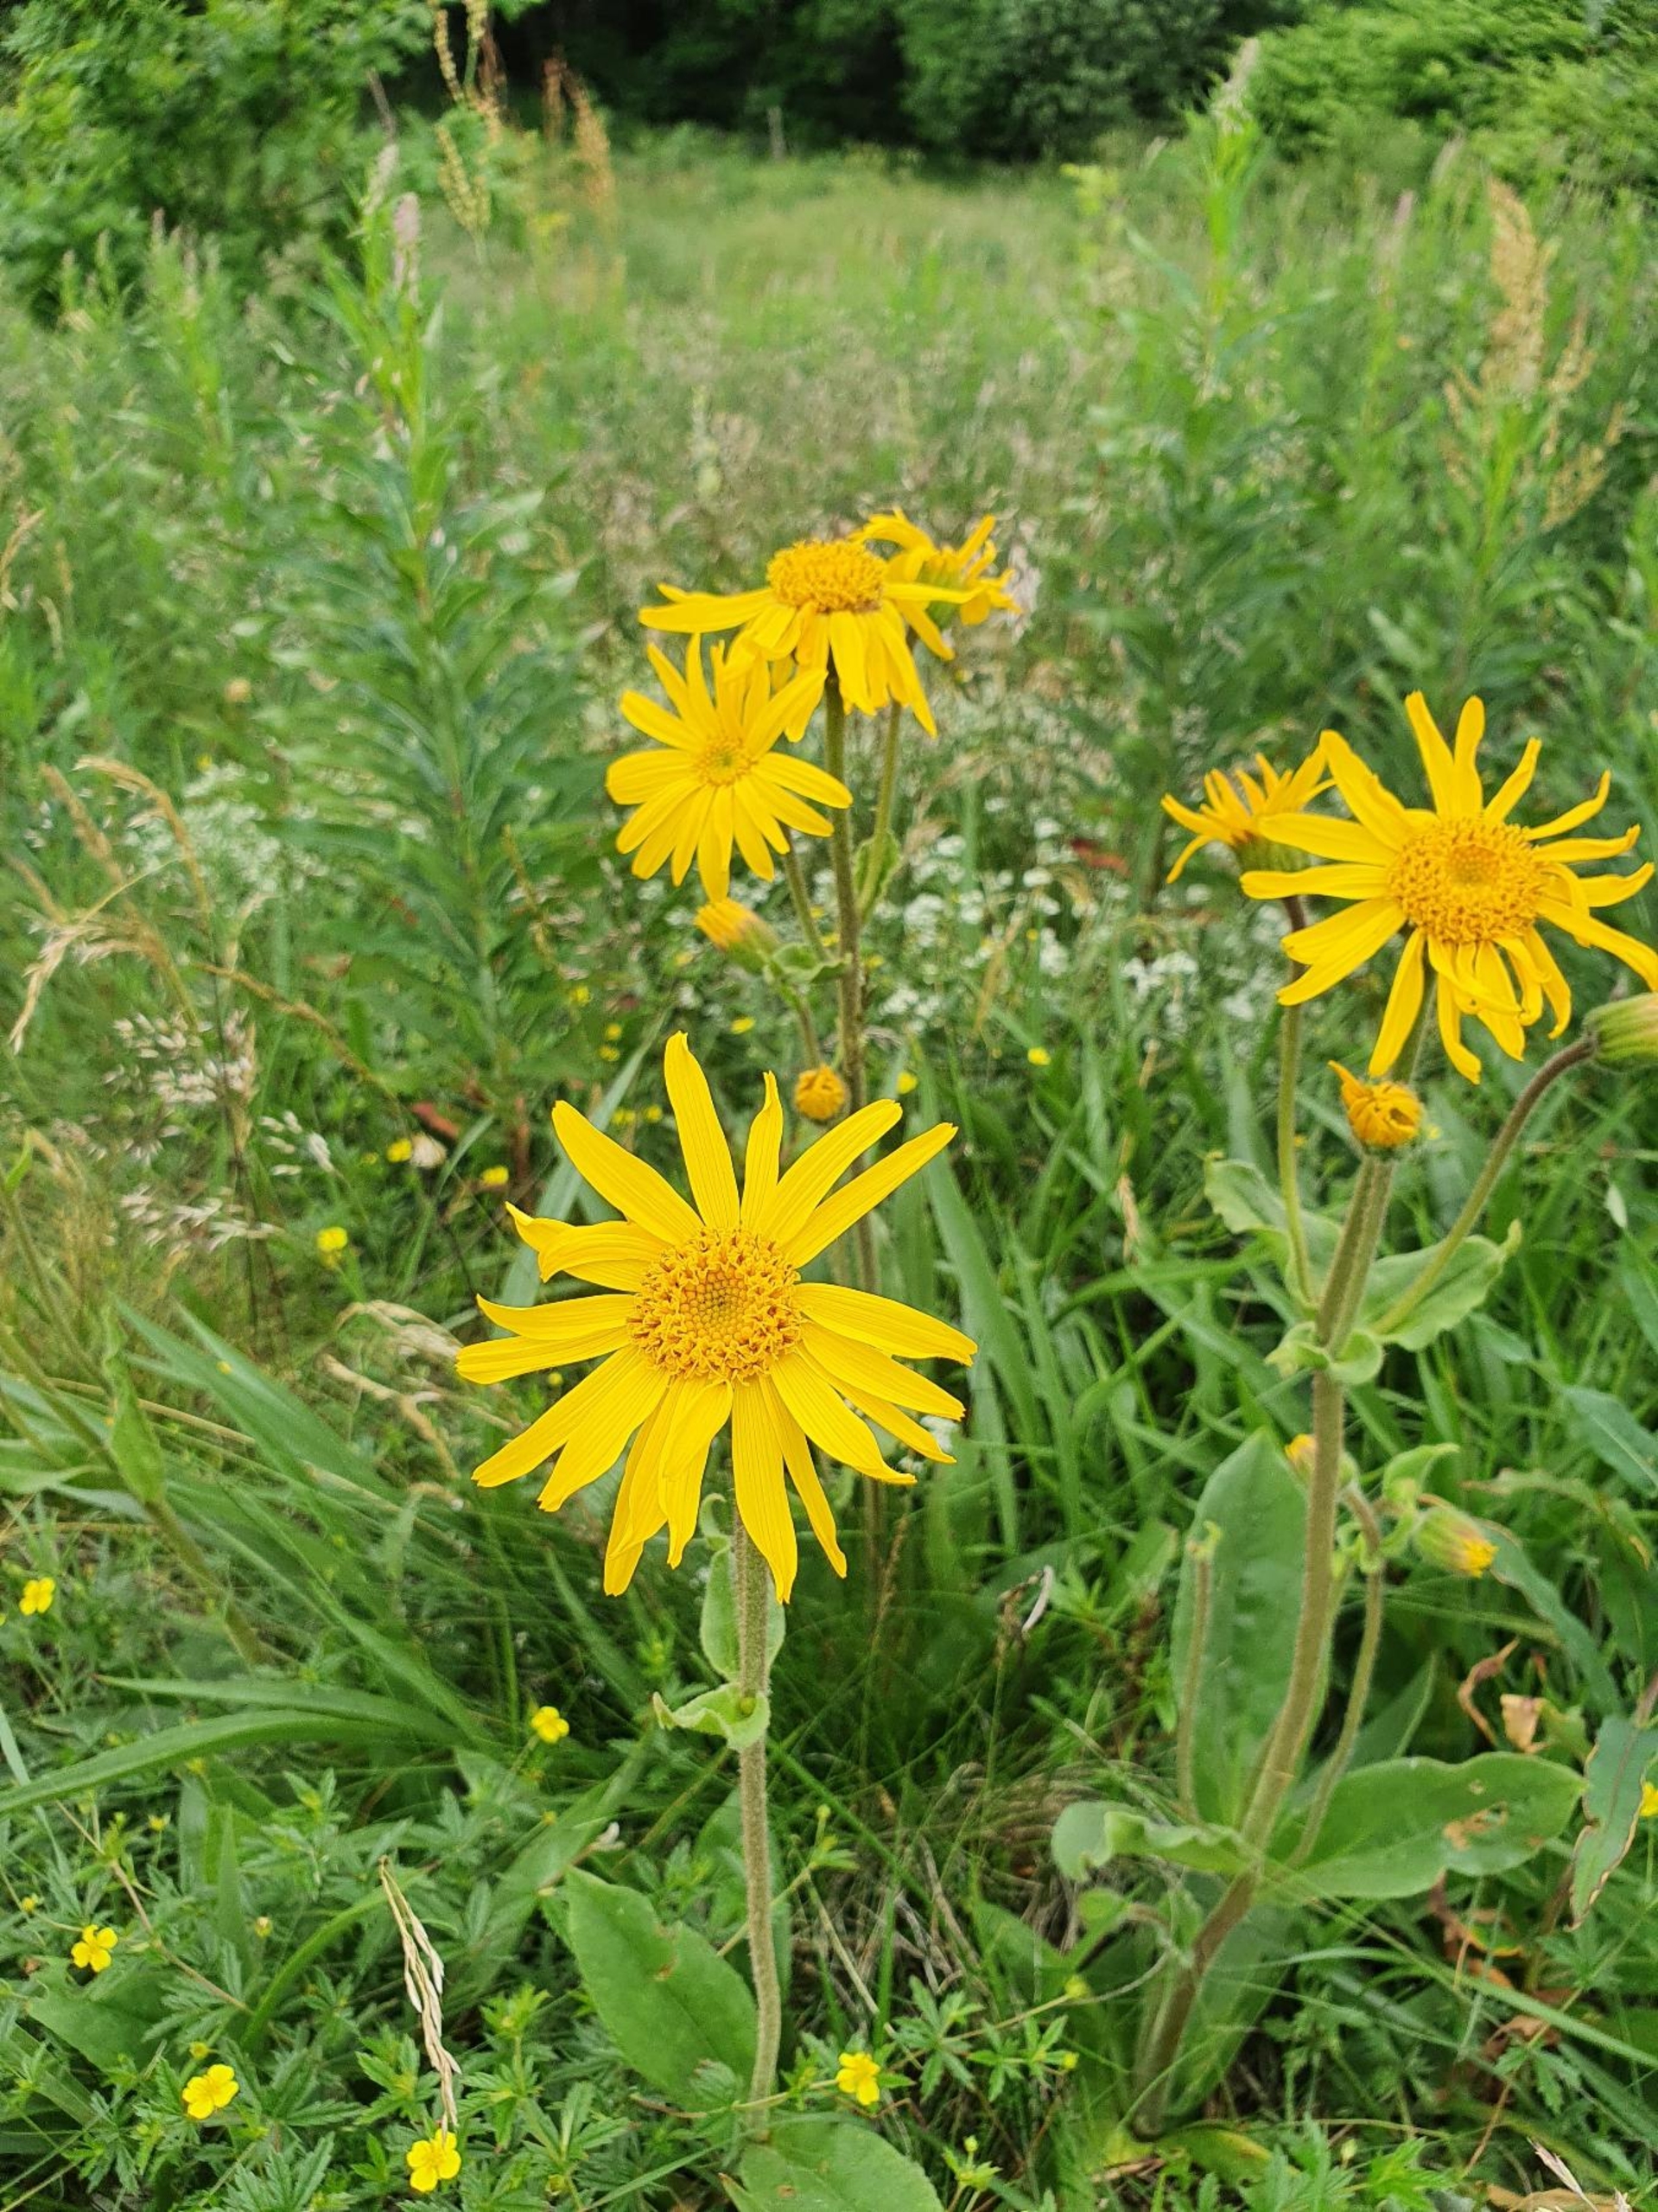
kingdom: Plantae
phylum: Tracheophyta
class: Magnoliopsida
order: Asterales
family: Asteraceae
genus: Arnica
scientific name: Arnica montana
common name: Guldblomme
